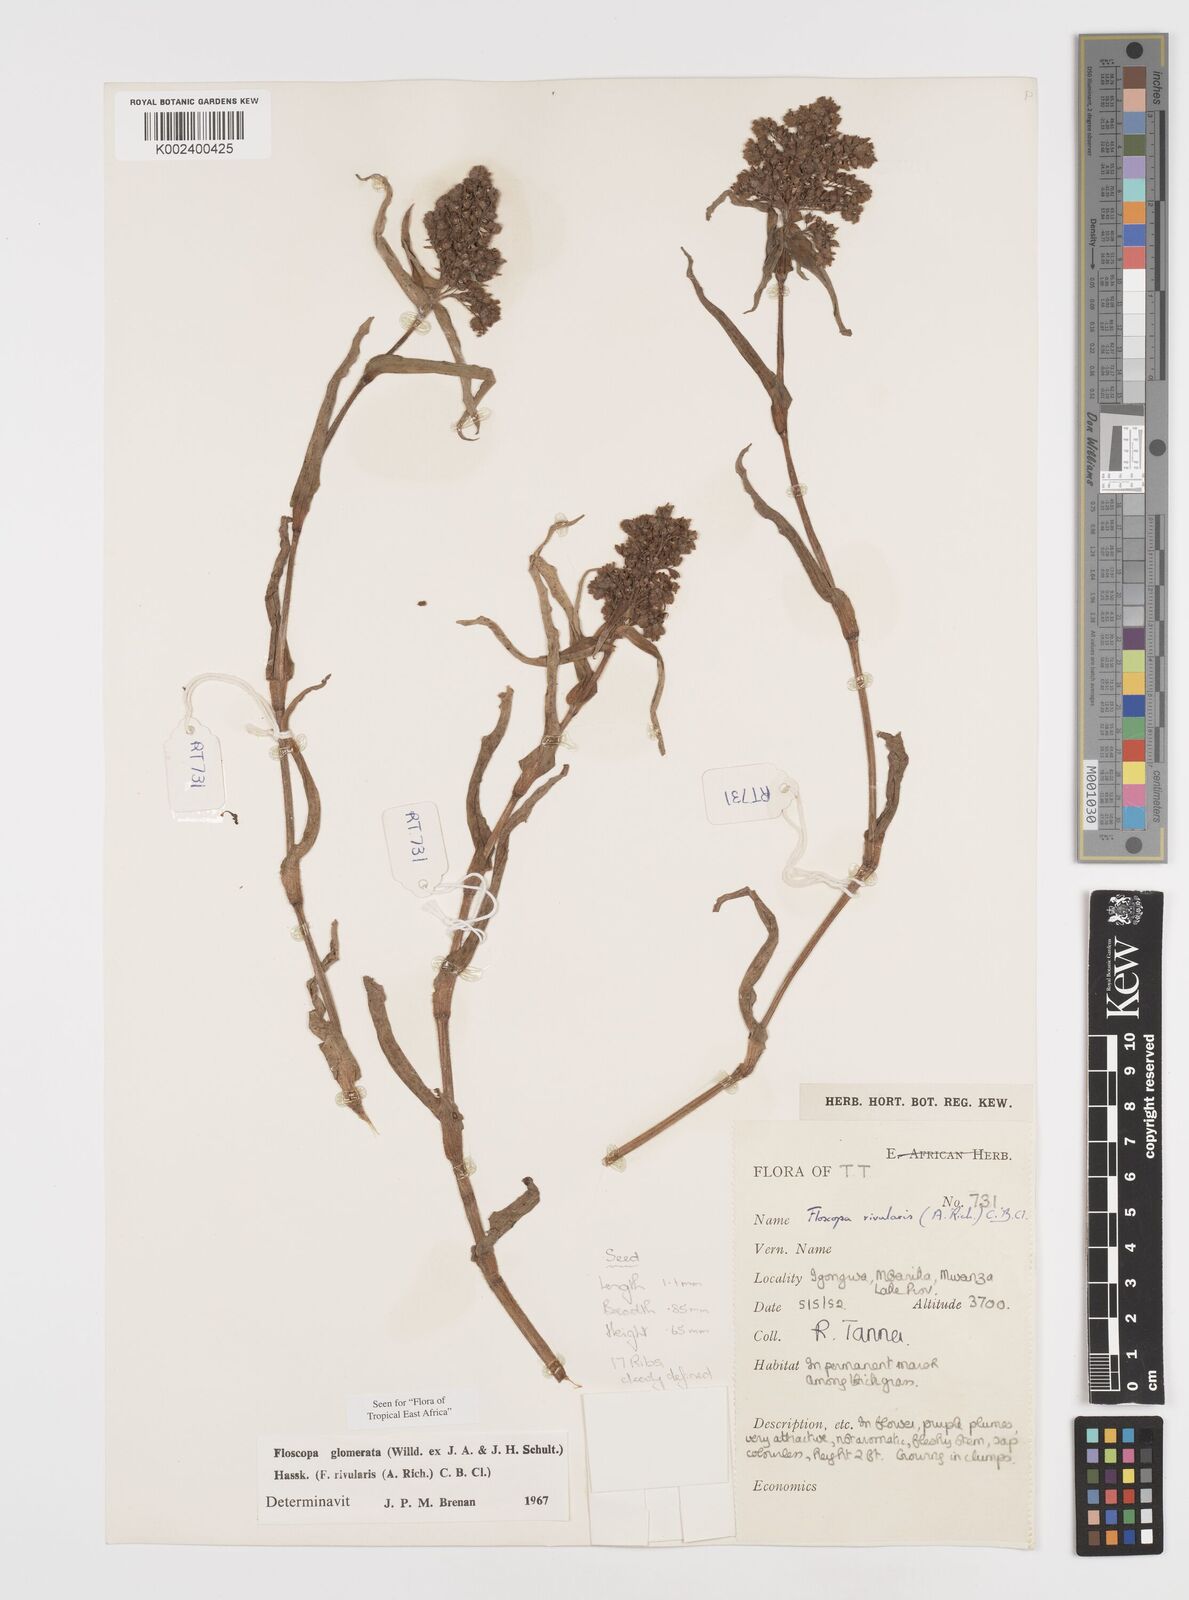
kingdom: Plantae
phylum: Tracheophyta
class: Liliopsida
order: Commelinales
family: Commelinaceae
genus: Floscopa
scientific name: Floscopa glomerata
